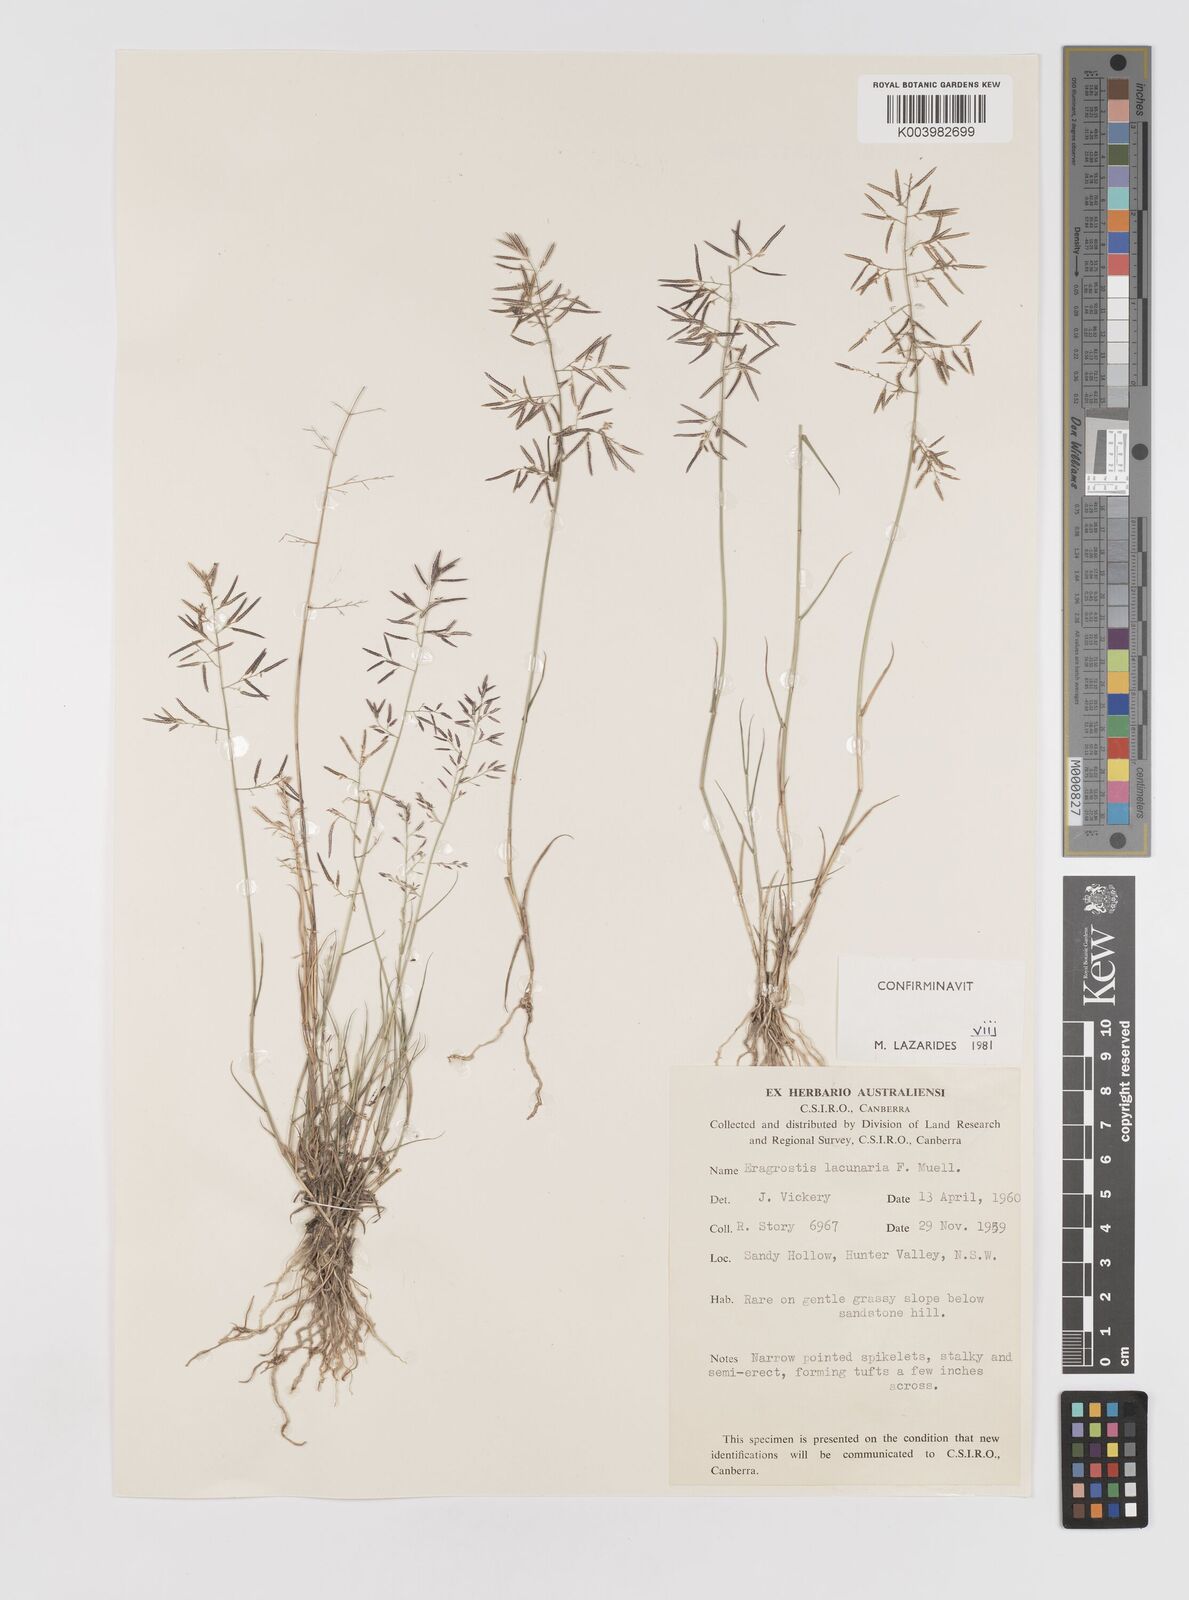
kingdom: Plantae
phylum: Tracheophyta
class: Liliopsida
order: Poales
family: Poaceae
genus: Eragrostis
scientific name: Eragrostis lacunaria
